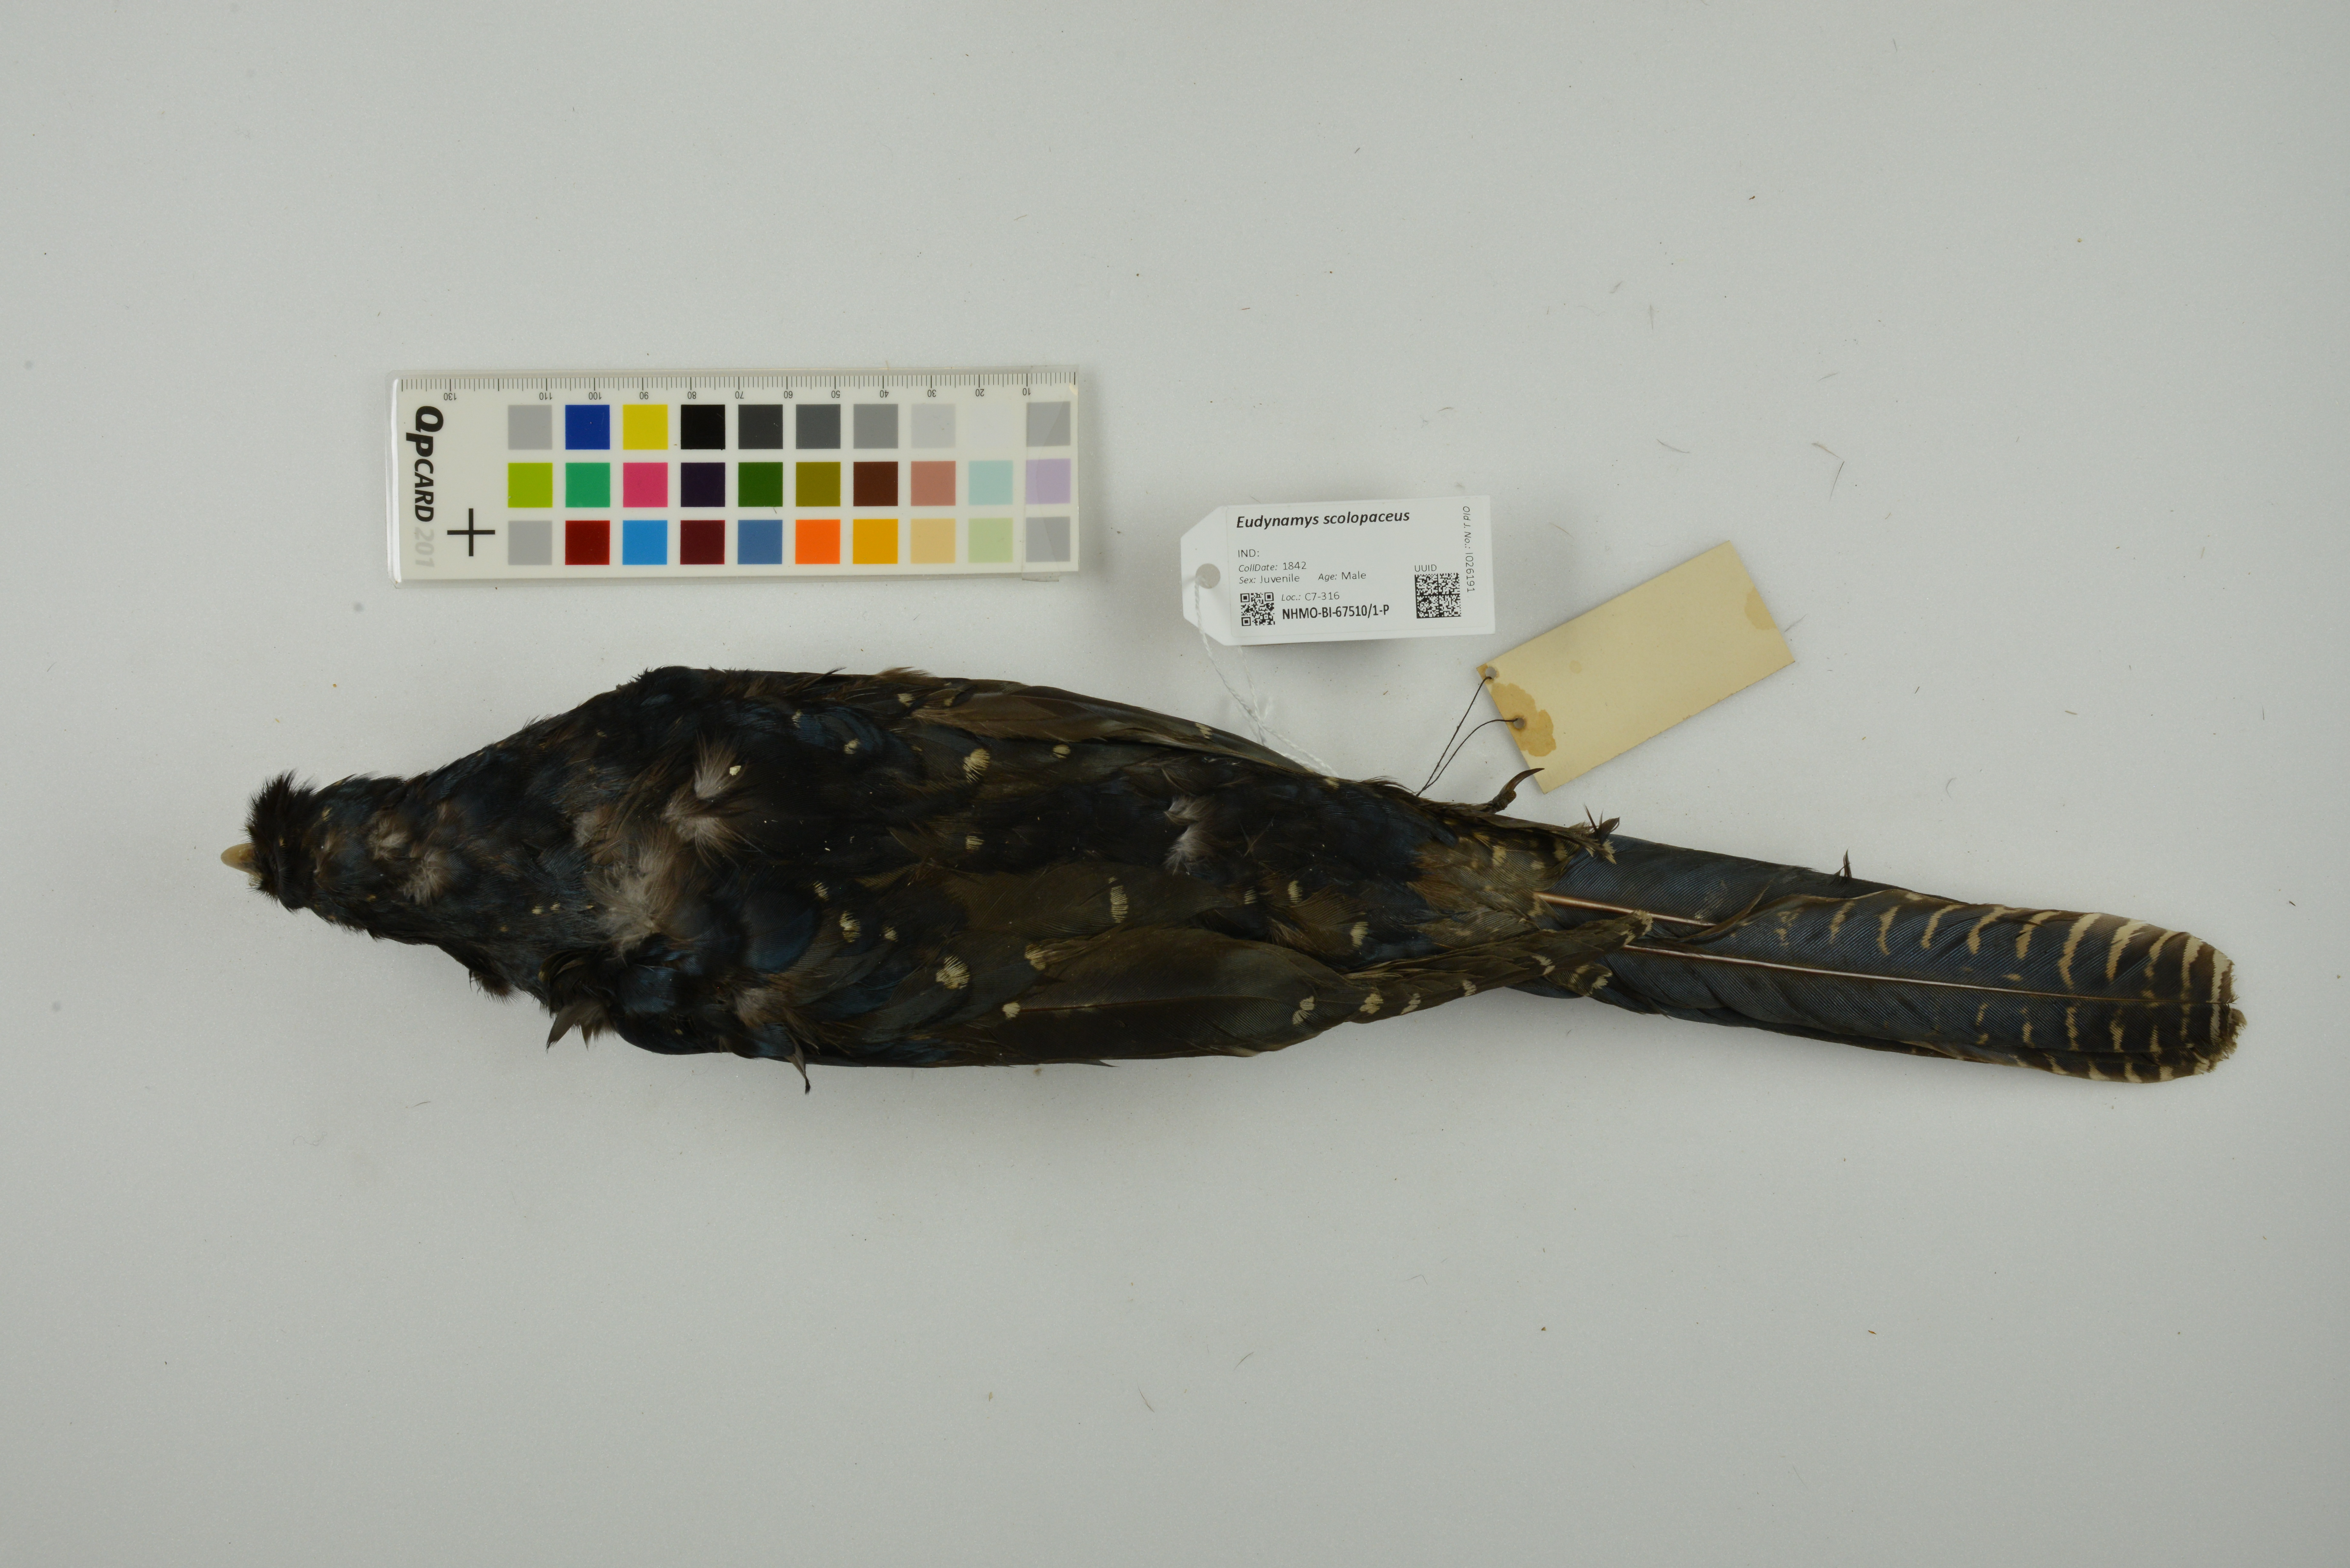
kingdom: Animalia
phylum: Chordata
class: Aves
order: Cuculiformes
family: Cuculidae
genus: Eudynamys
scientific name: Eudynamys scolopaceus
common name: Asian koel
